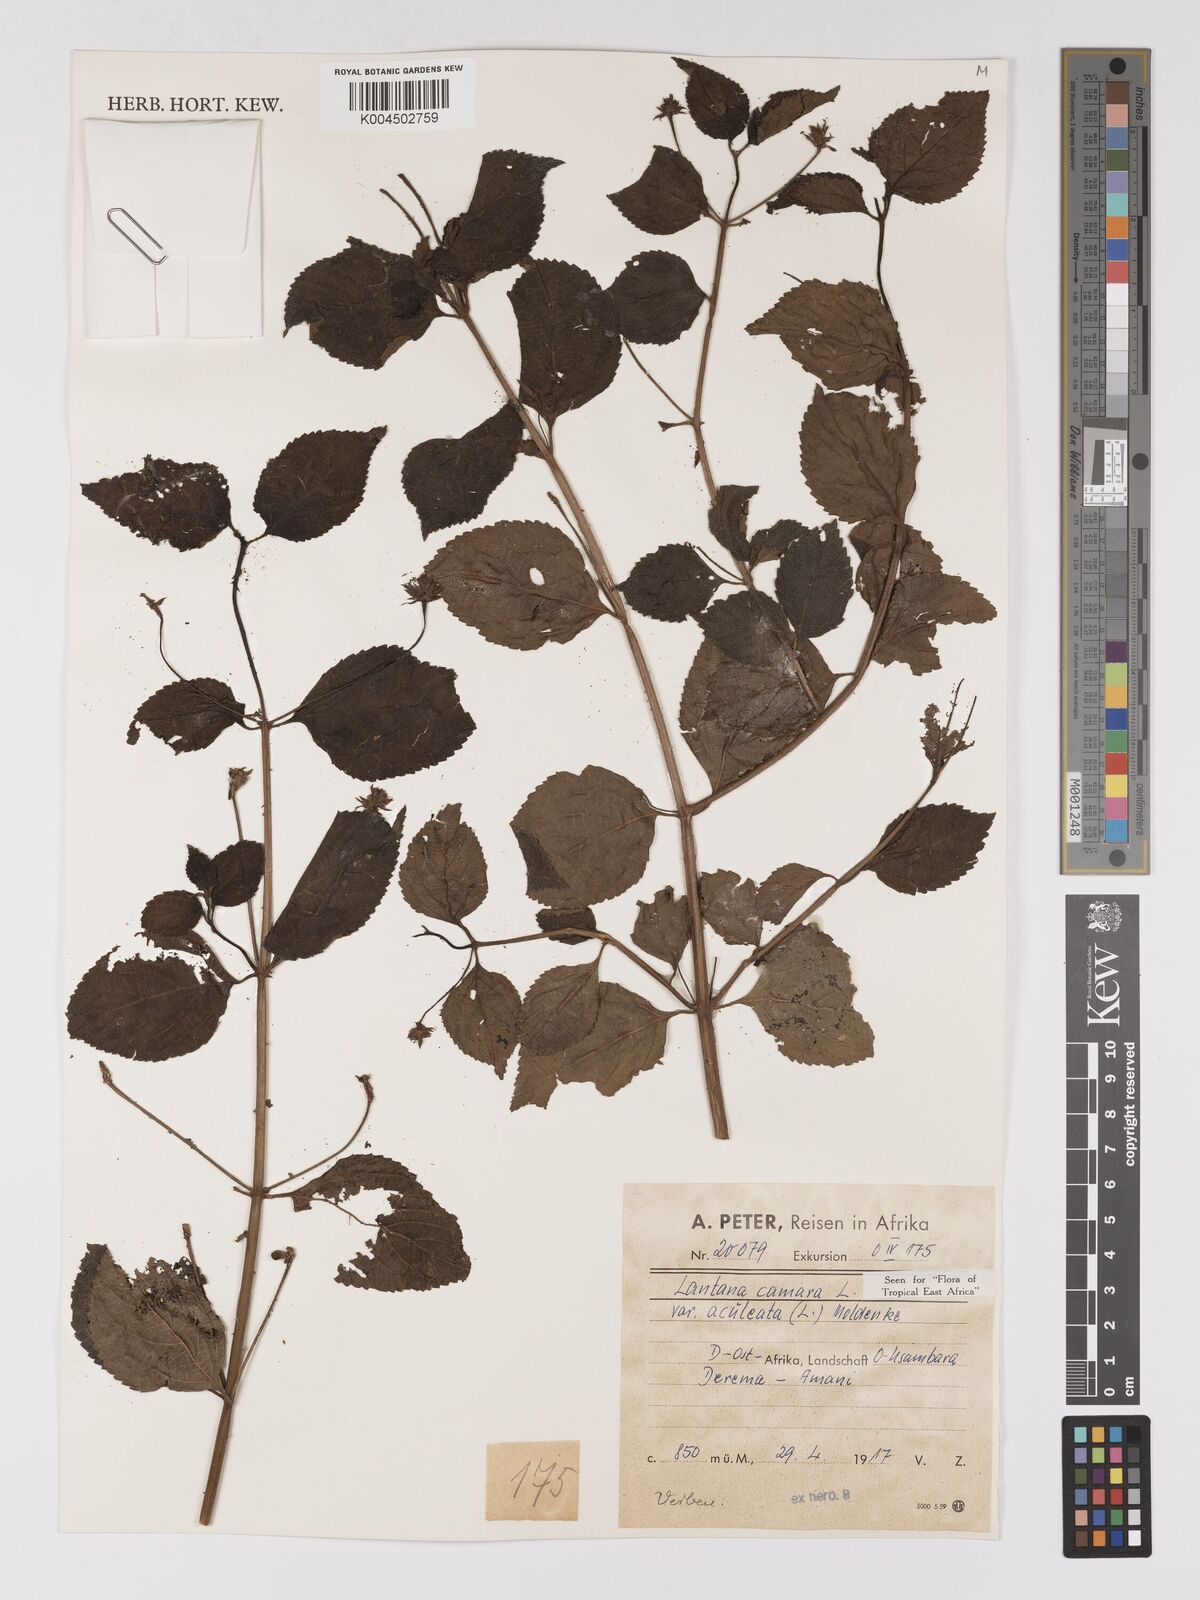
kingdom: Plantae
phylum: Tracheophyta
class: Magnoliopsida
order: Lamiales
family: Verbenaceae
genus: Lantana
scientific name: Lantana camara
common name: Lantana
